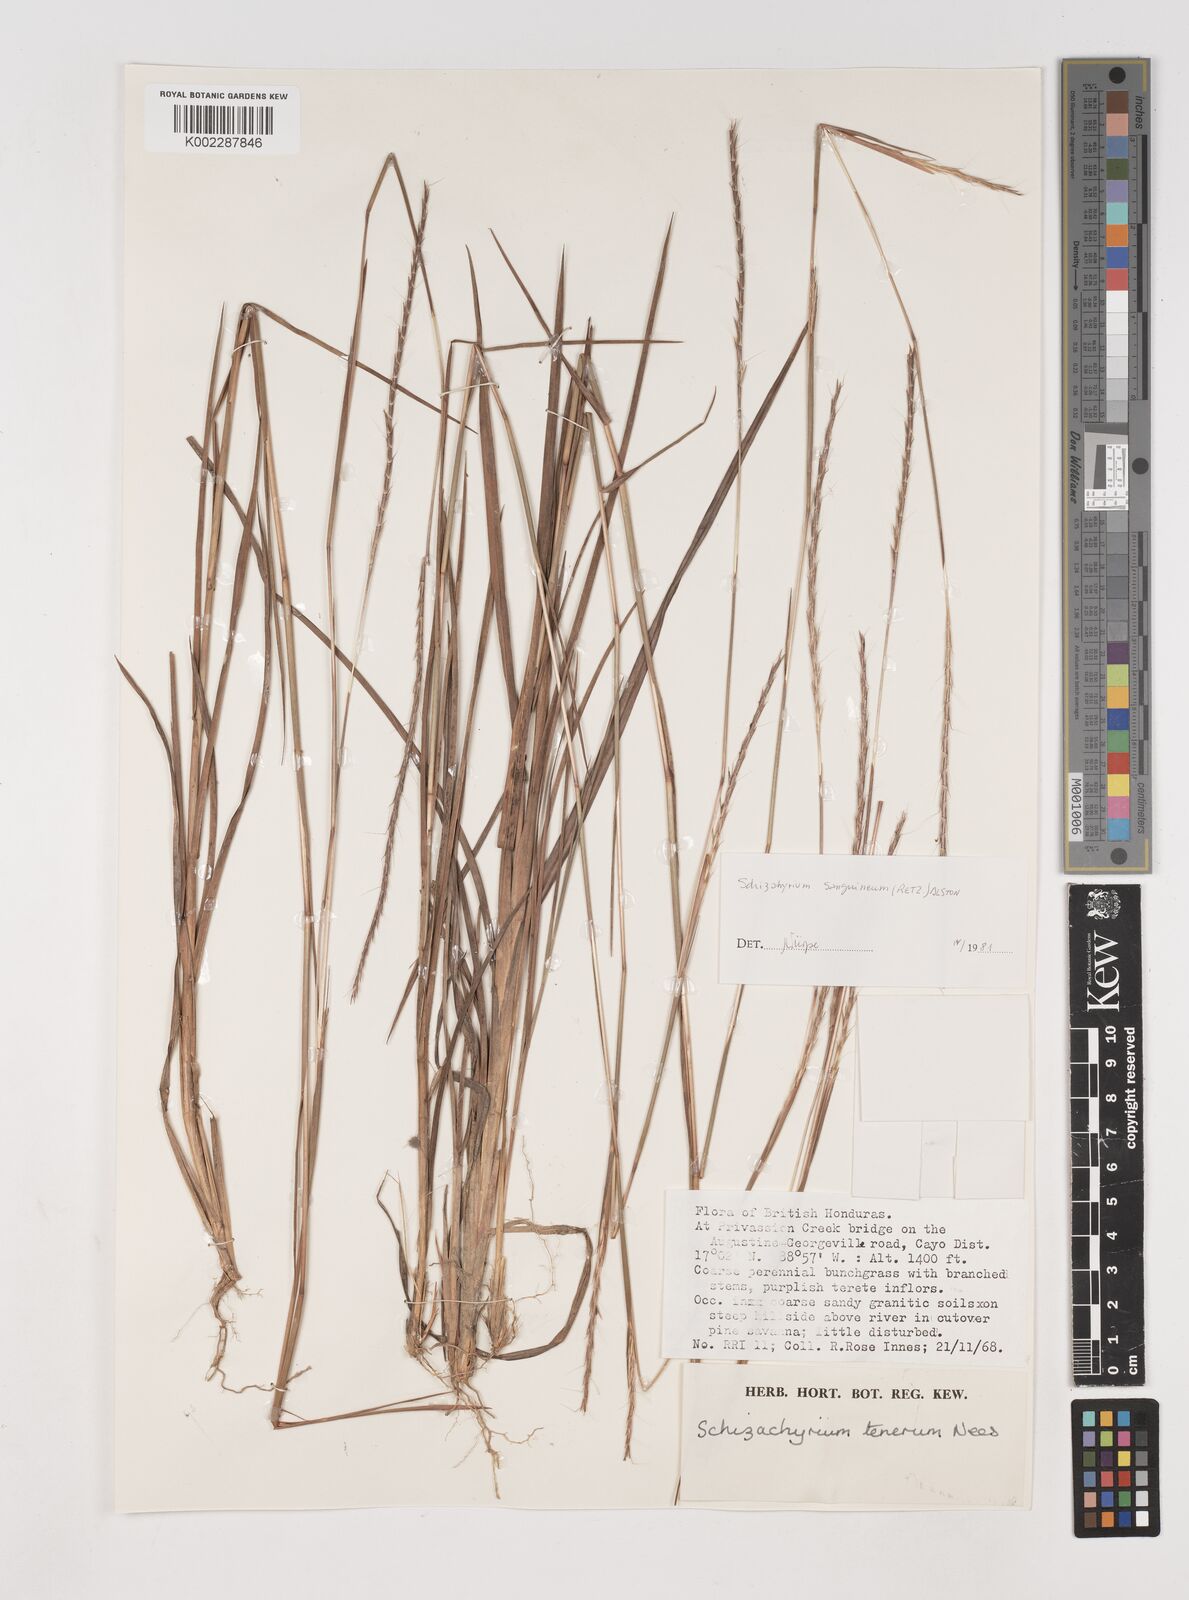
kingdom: Plantae
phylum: Tracheophyta
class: Liliopsida
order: Poales
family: Poaceae
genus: Schizachyrium
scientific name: Schizachyrium sanguineum
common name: Crimson bluestem
